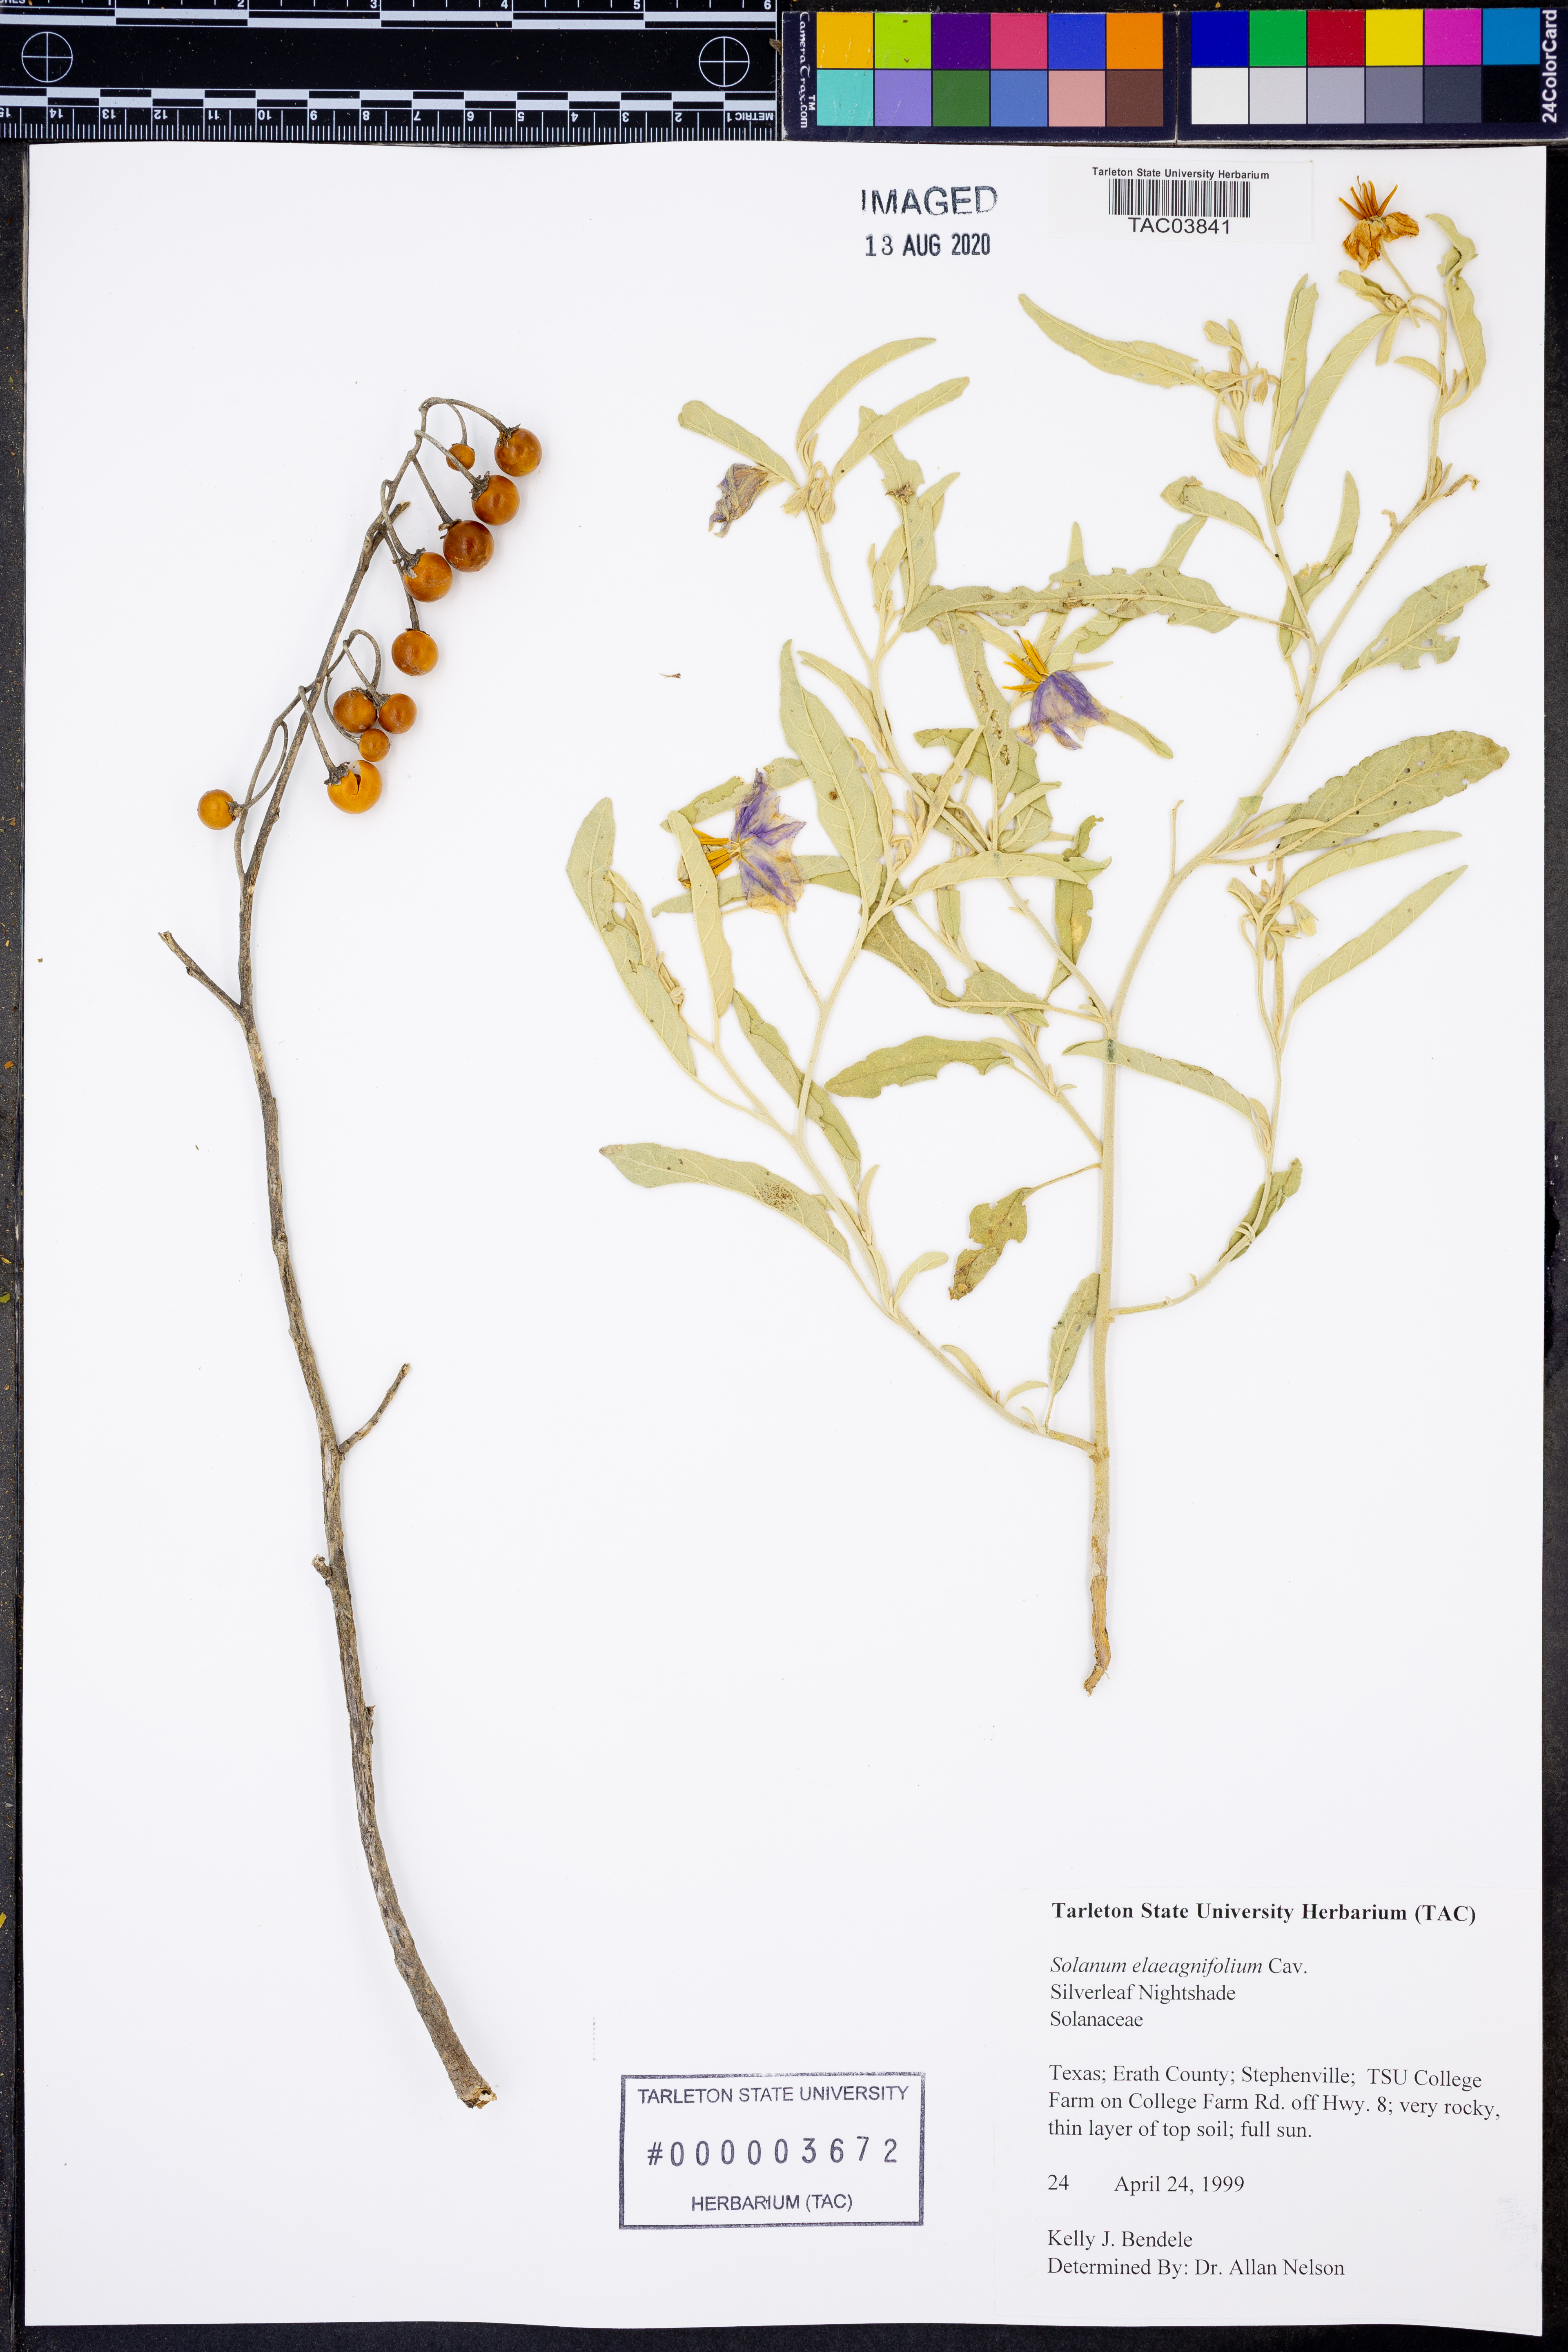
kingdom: Plantae
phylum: Tracheophyta
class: Magnoliopsida
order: Solanales
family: Solanaceae
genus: Solanum
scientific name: Solanum elaeagnifolium
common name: Silverleaf nightshade
